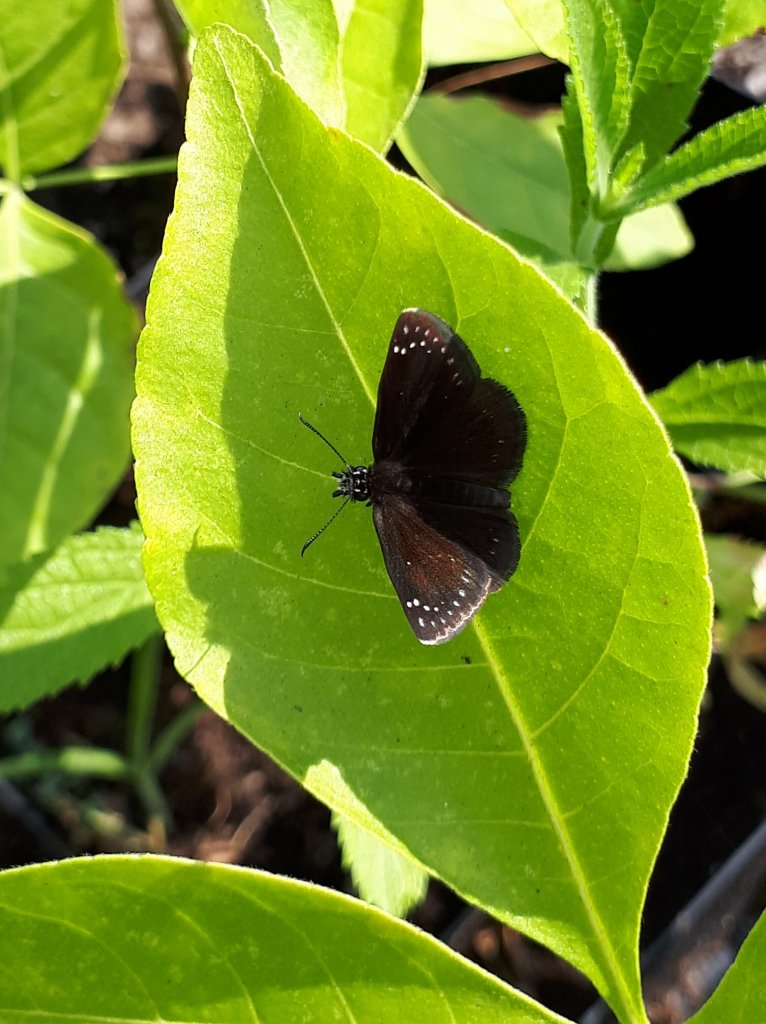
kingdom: Animalia
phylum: Arthropoda
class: Insecta
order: Lepidoptera
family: Hesperiidae
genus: Pholisora
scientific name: Pholisora catullus
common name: Common Sootywing
